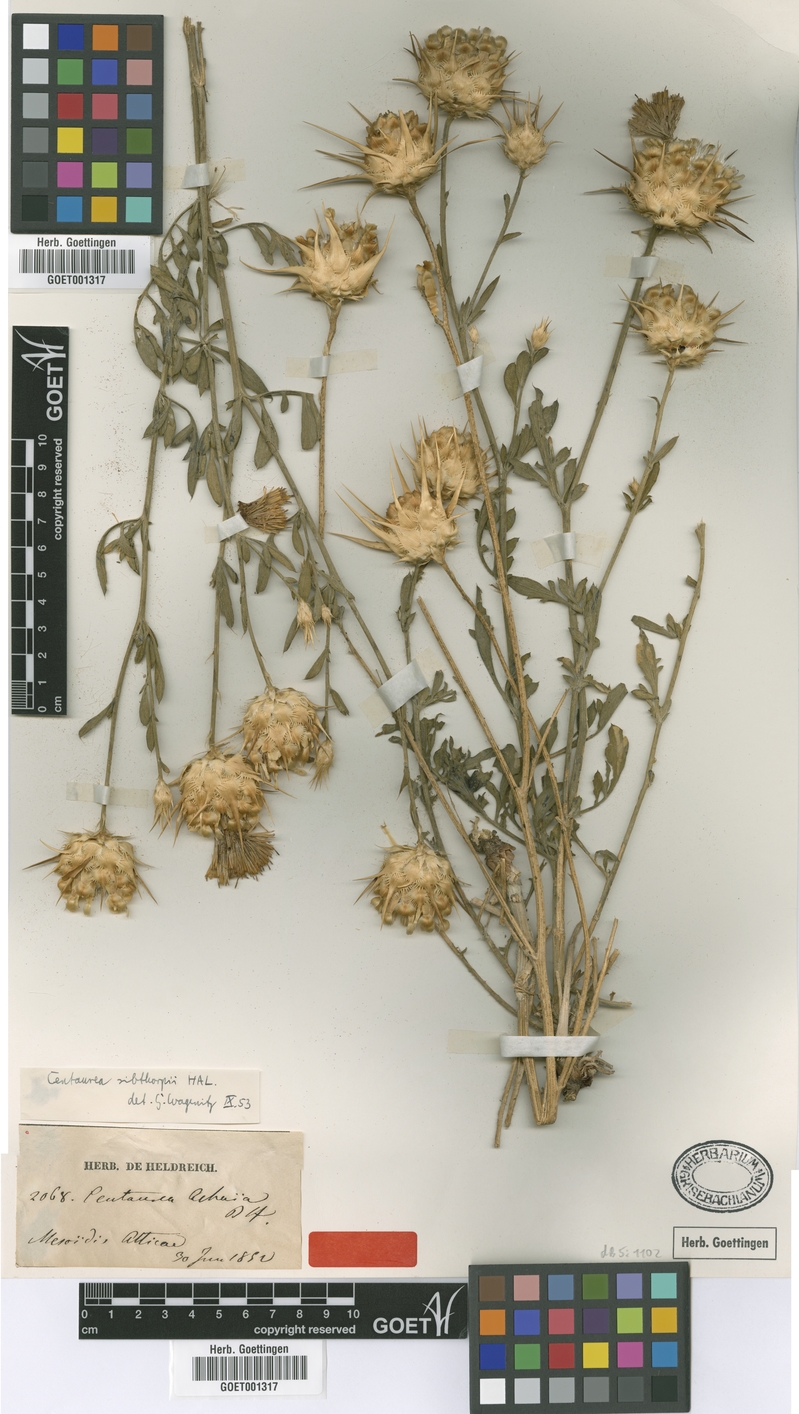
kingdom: Plantae
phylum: Tracheophyta
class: Magnoliopsida
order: Asterales
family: Asteraceae
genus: Centaurea
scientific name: Centaurea achaia
